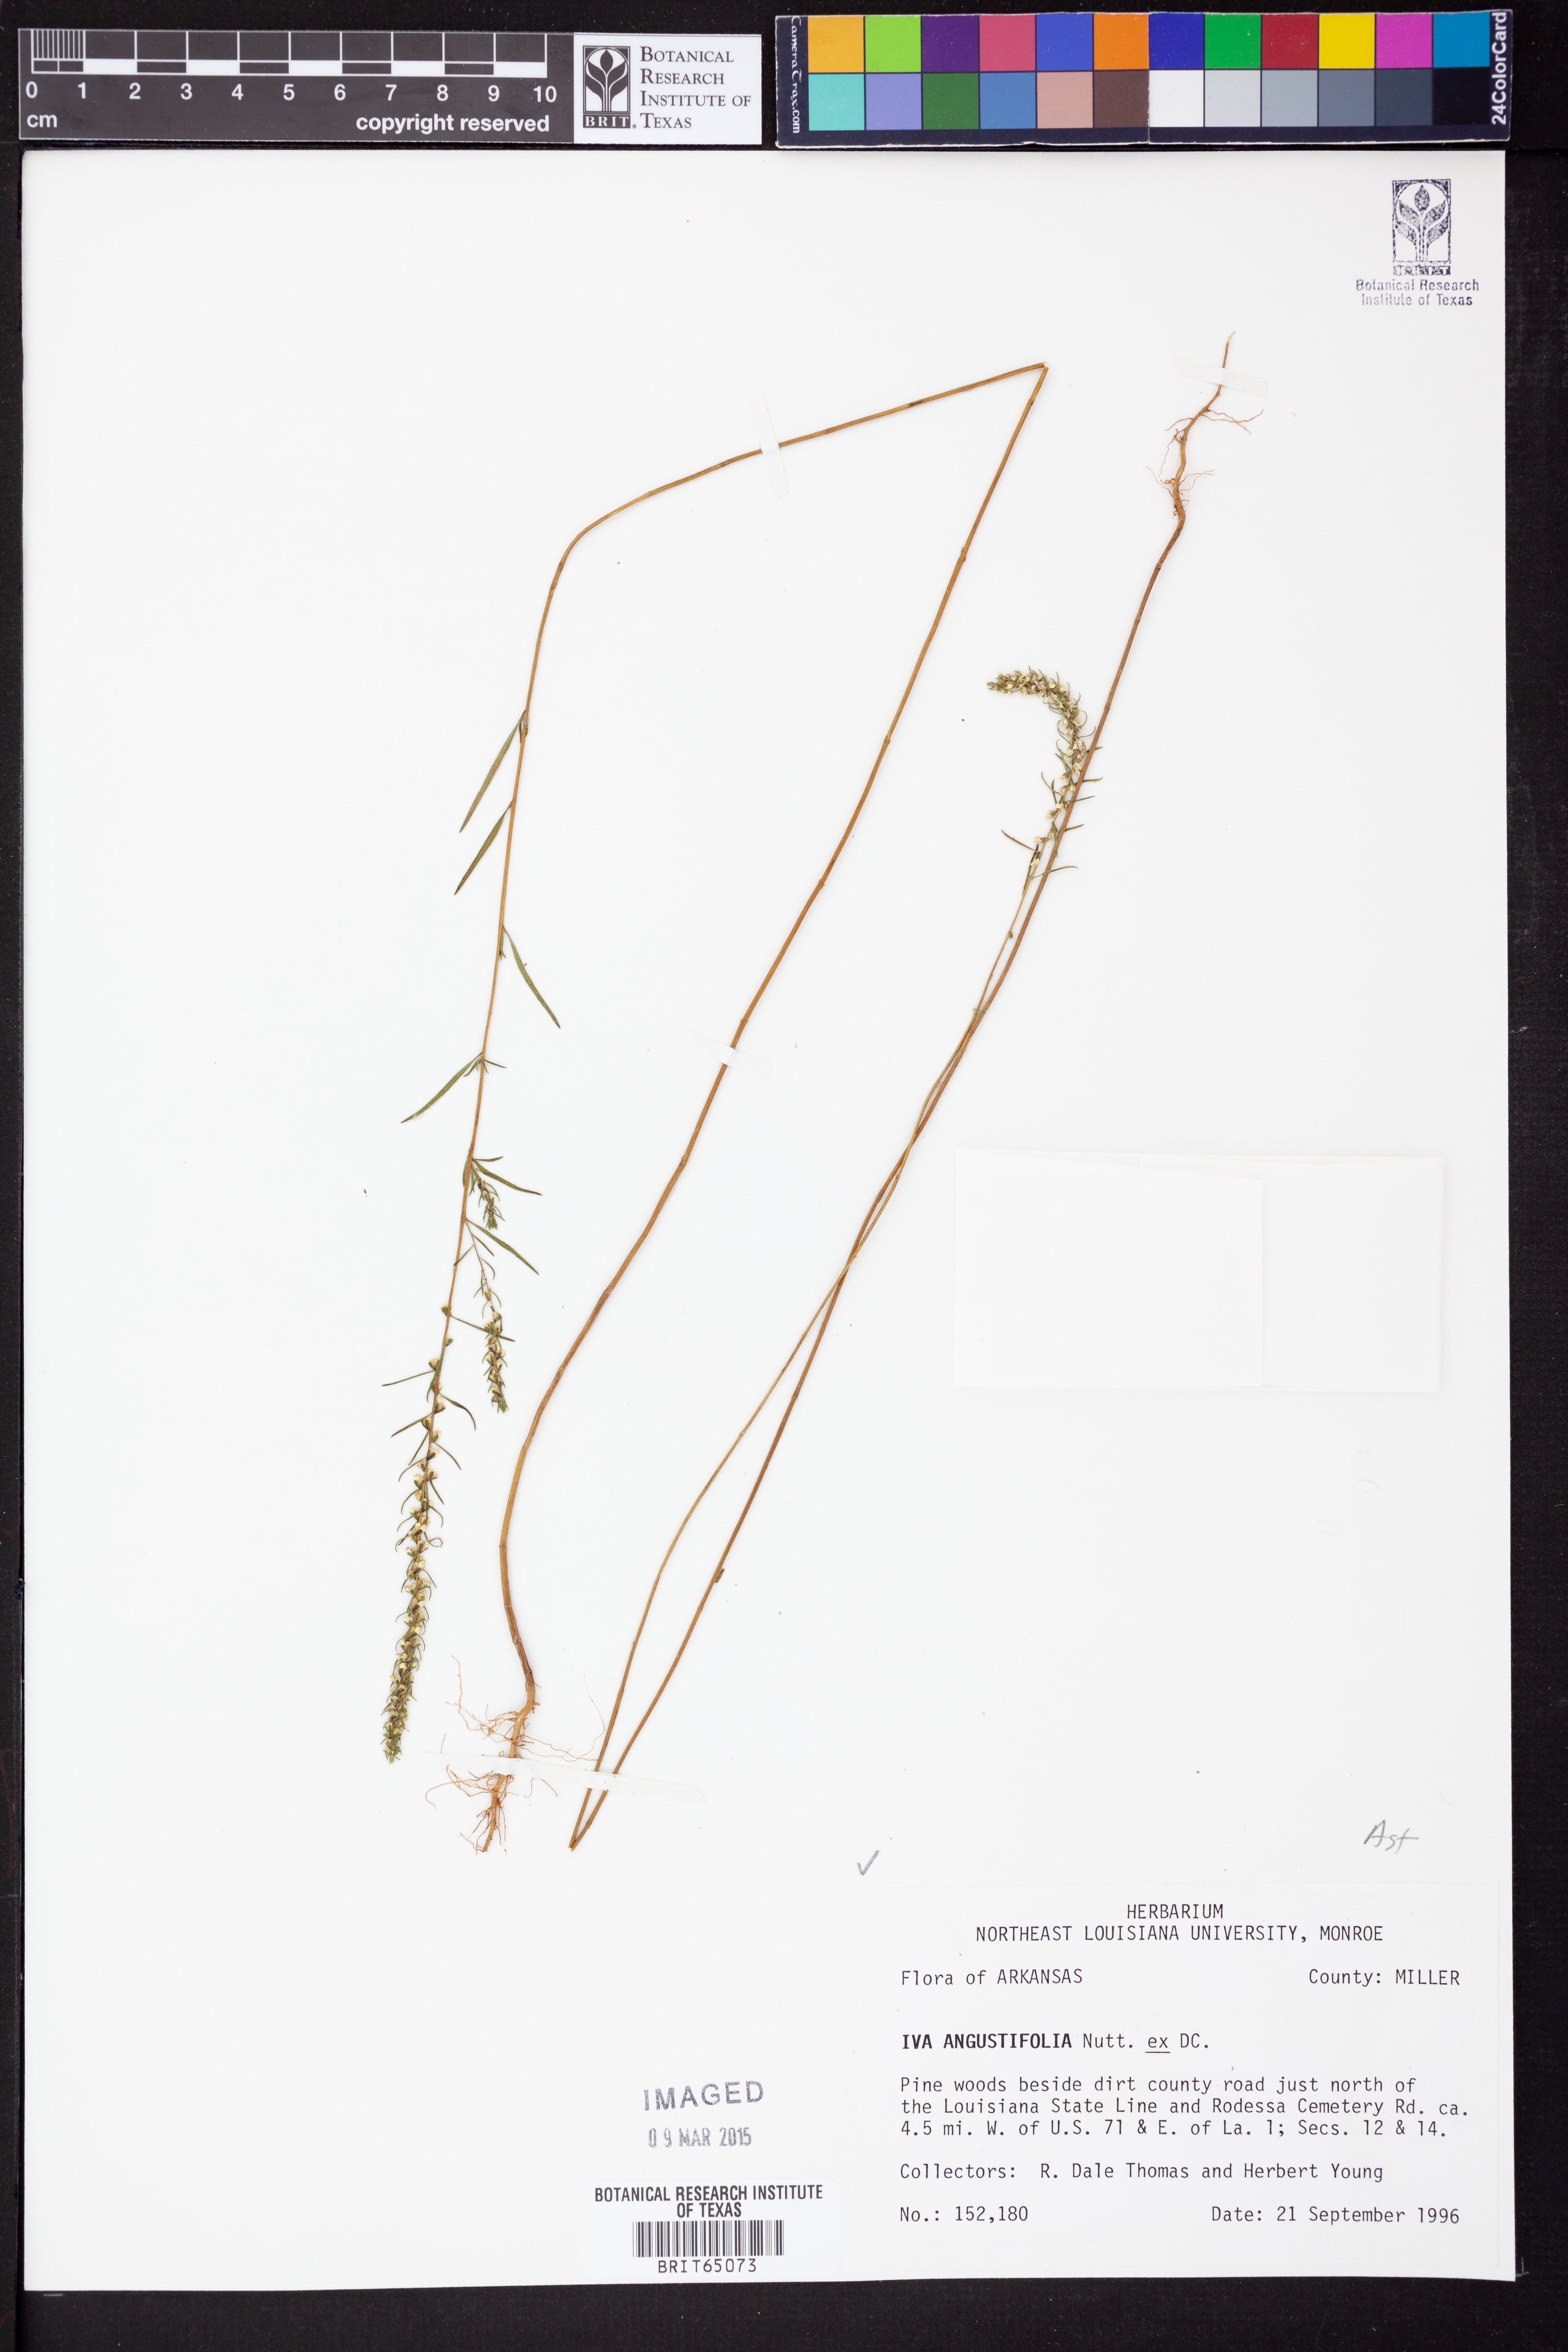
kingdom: Plantae
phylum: Tracheophyta
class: Magnoliopsida
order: Asterales
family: Asteraceae
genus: Iva
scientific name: Iva asperifolia
